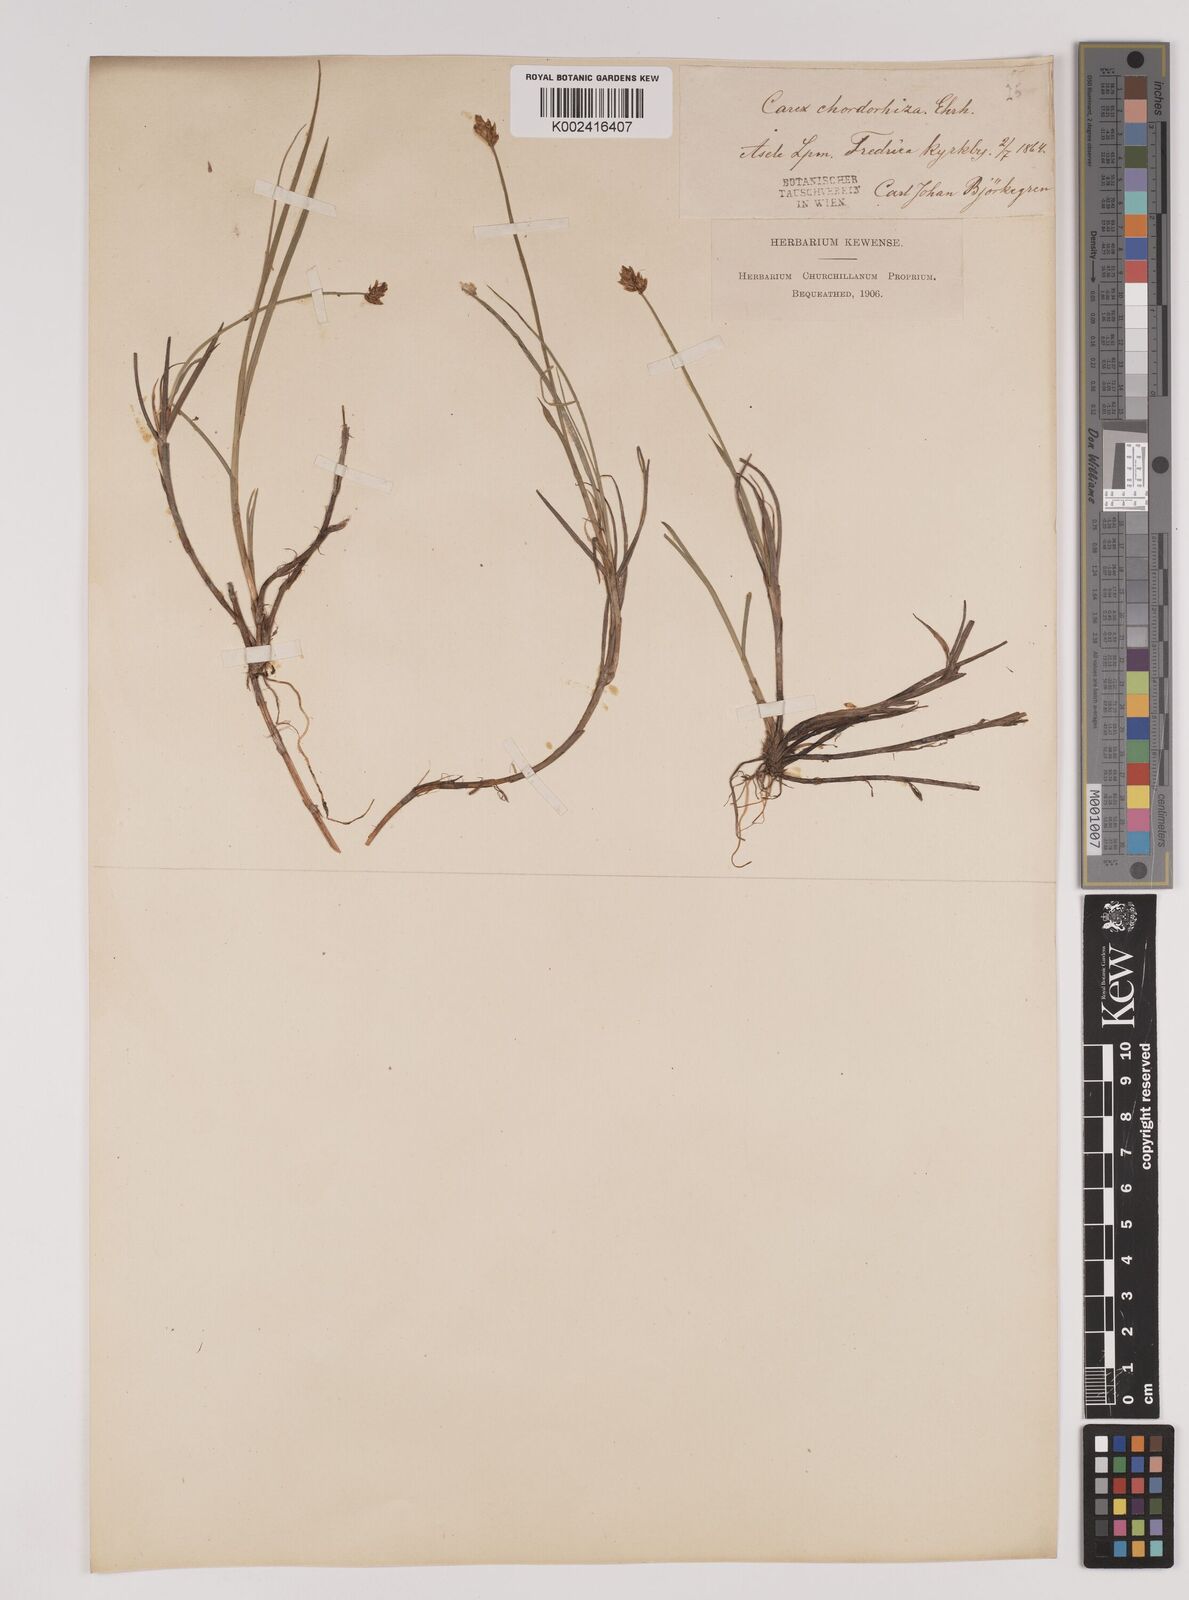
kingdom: Plantae
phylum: Tracheophyta
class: Liliopsida
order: Poales
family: Cyperaceae
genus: Carex
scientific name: Carex chordorrhiza
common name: String sedge
